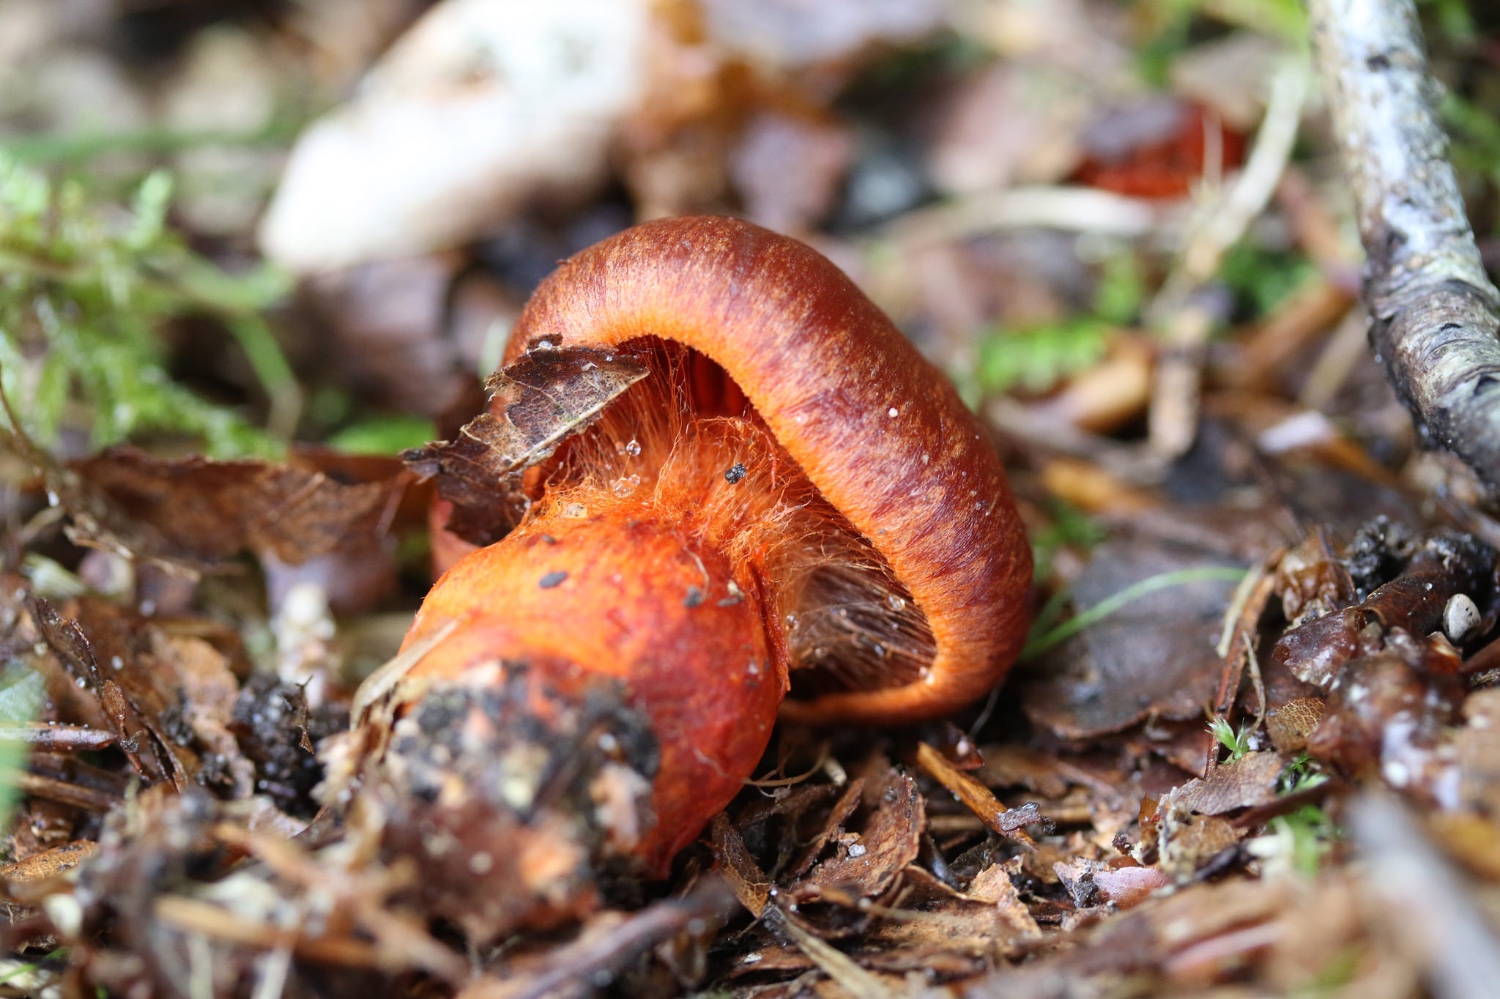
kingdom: Fungi
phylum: Basidiomycota
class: Agaricomycetes
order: Agaricales
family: Cortinariaceae
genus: Cortinarius
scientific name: Cortinarius
